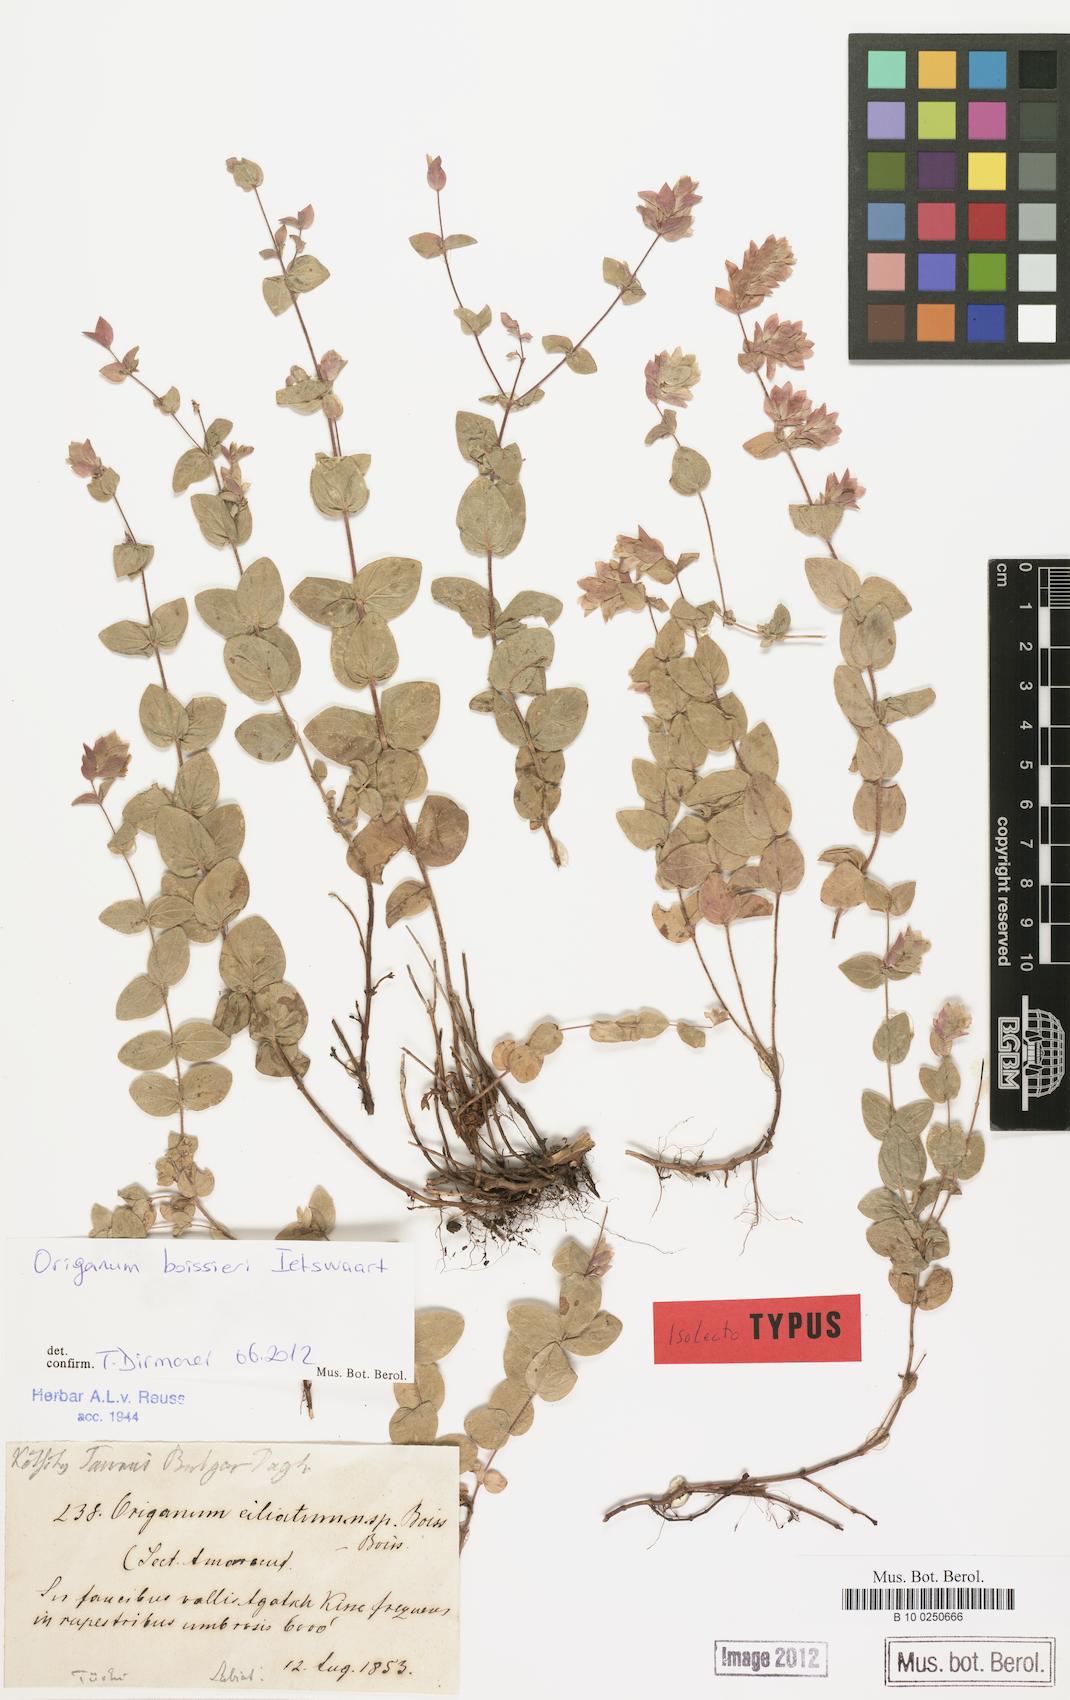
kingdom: Plantae
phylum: Tracheophyta
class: Magnoliopsida
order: Lamiales
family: Lamiaceae
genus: Origanum
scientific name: Origanum boissieri
